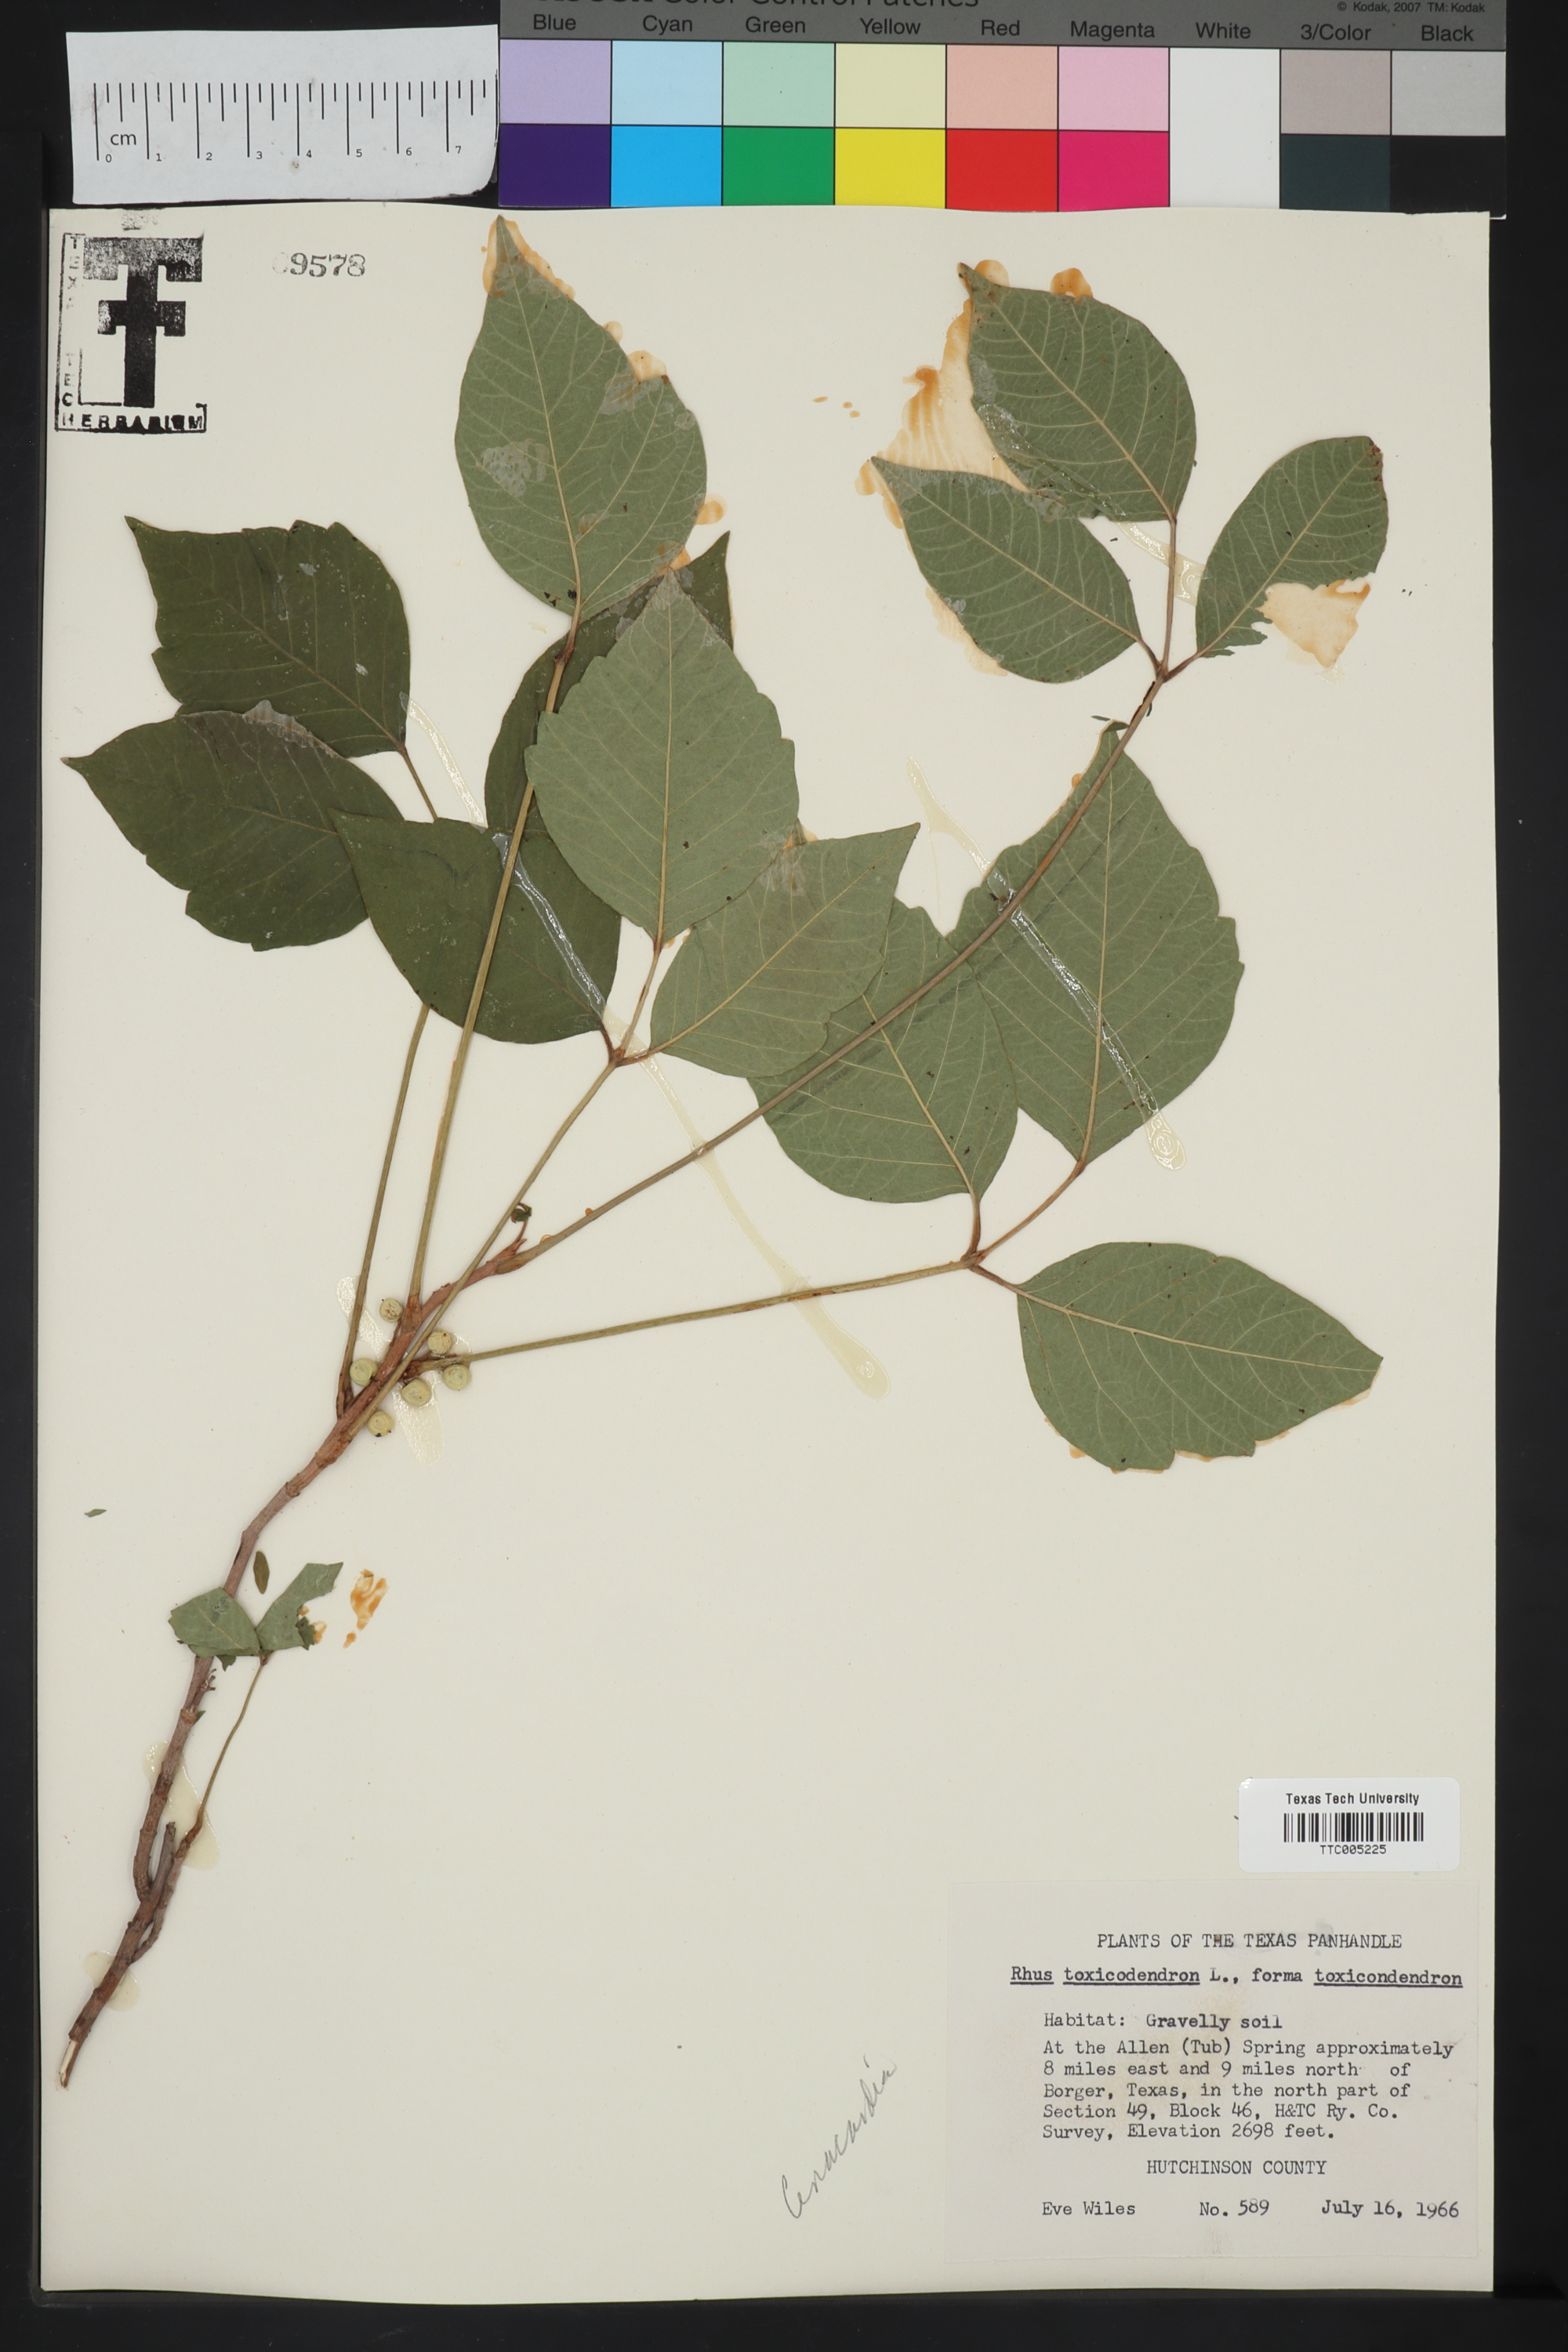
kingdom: Plantae
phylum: Tracheophyta
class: Magnoliopsida
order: Sapindales
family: Anacardiaceae
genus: Toxicodendron
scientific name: Toxicodendron
